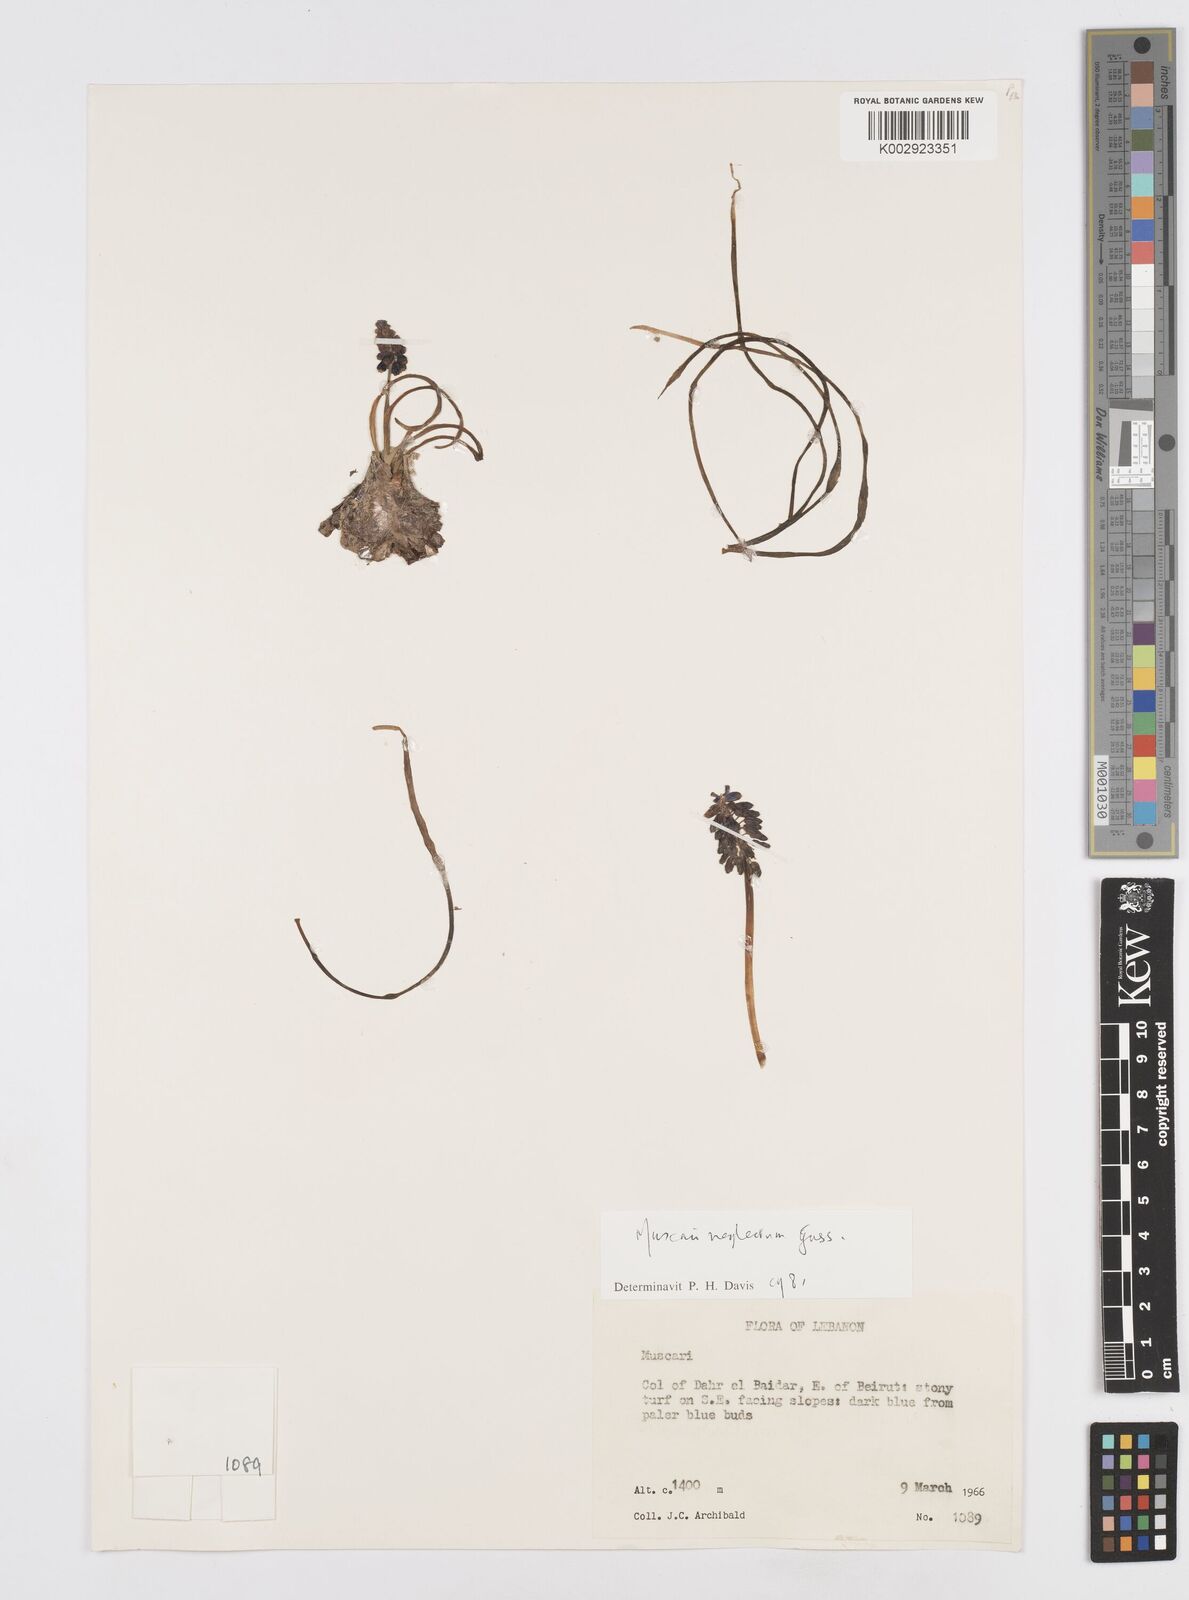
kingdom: Plantae
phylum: Tracheophyta
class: Liliopsida
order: Asparagales
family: Asparagaceae
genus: Muscarimia
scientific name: Muscarimia muscari
